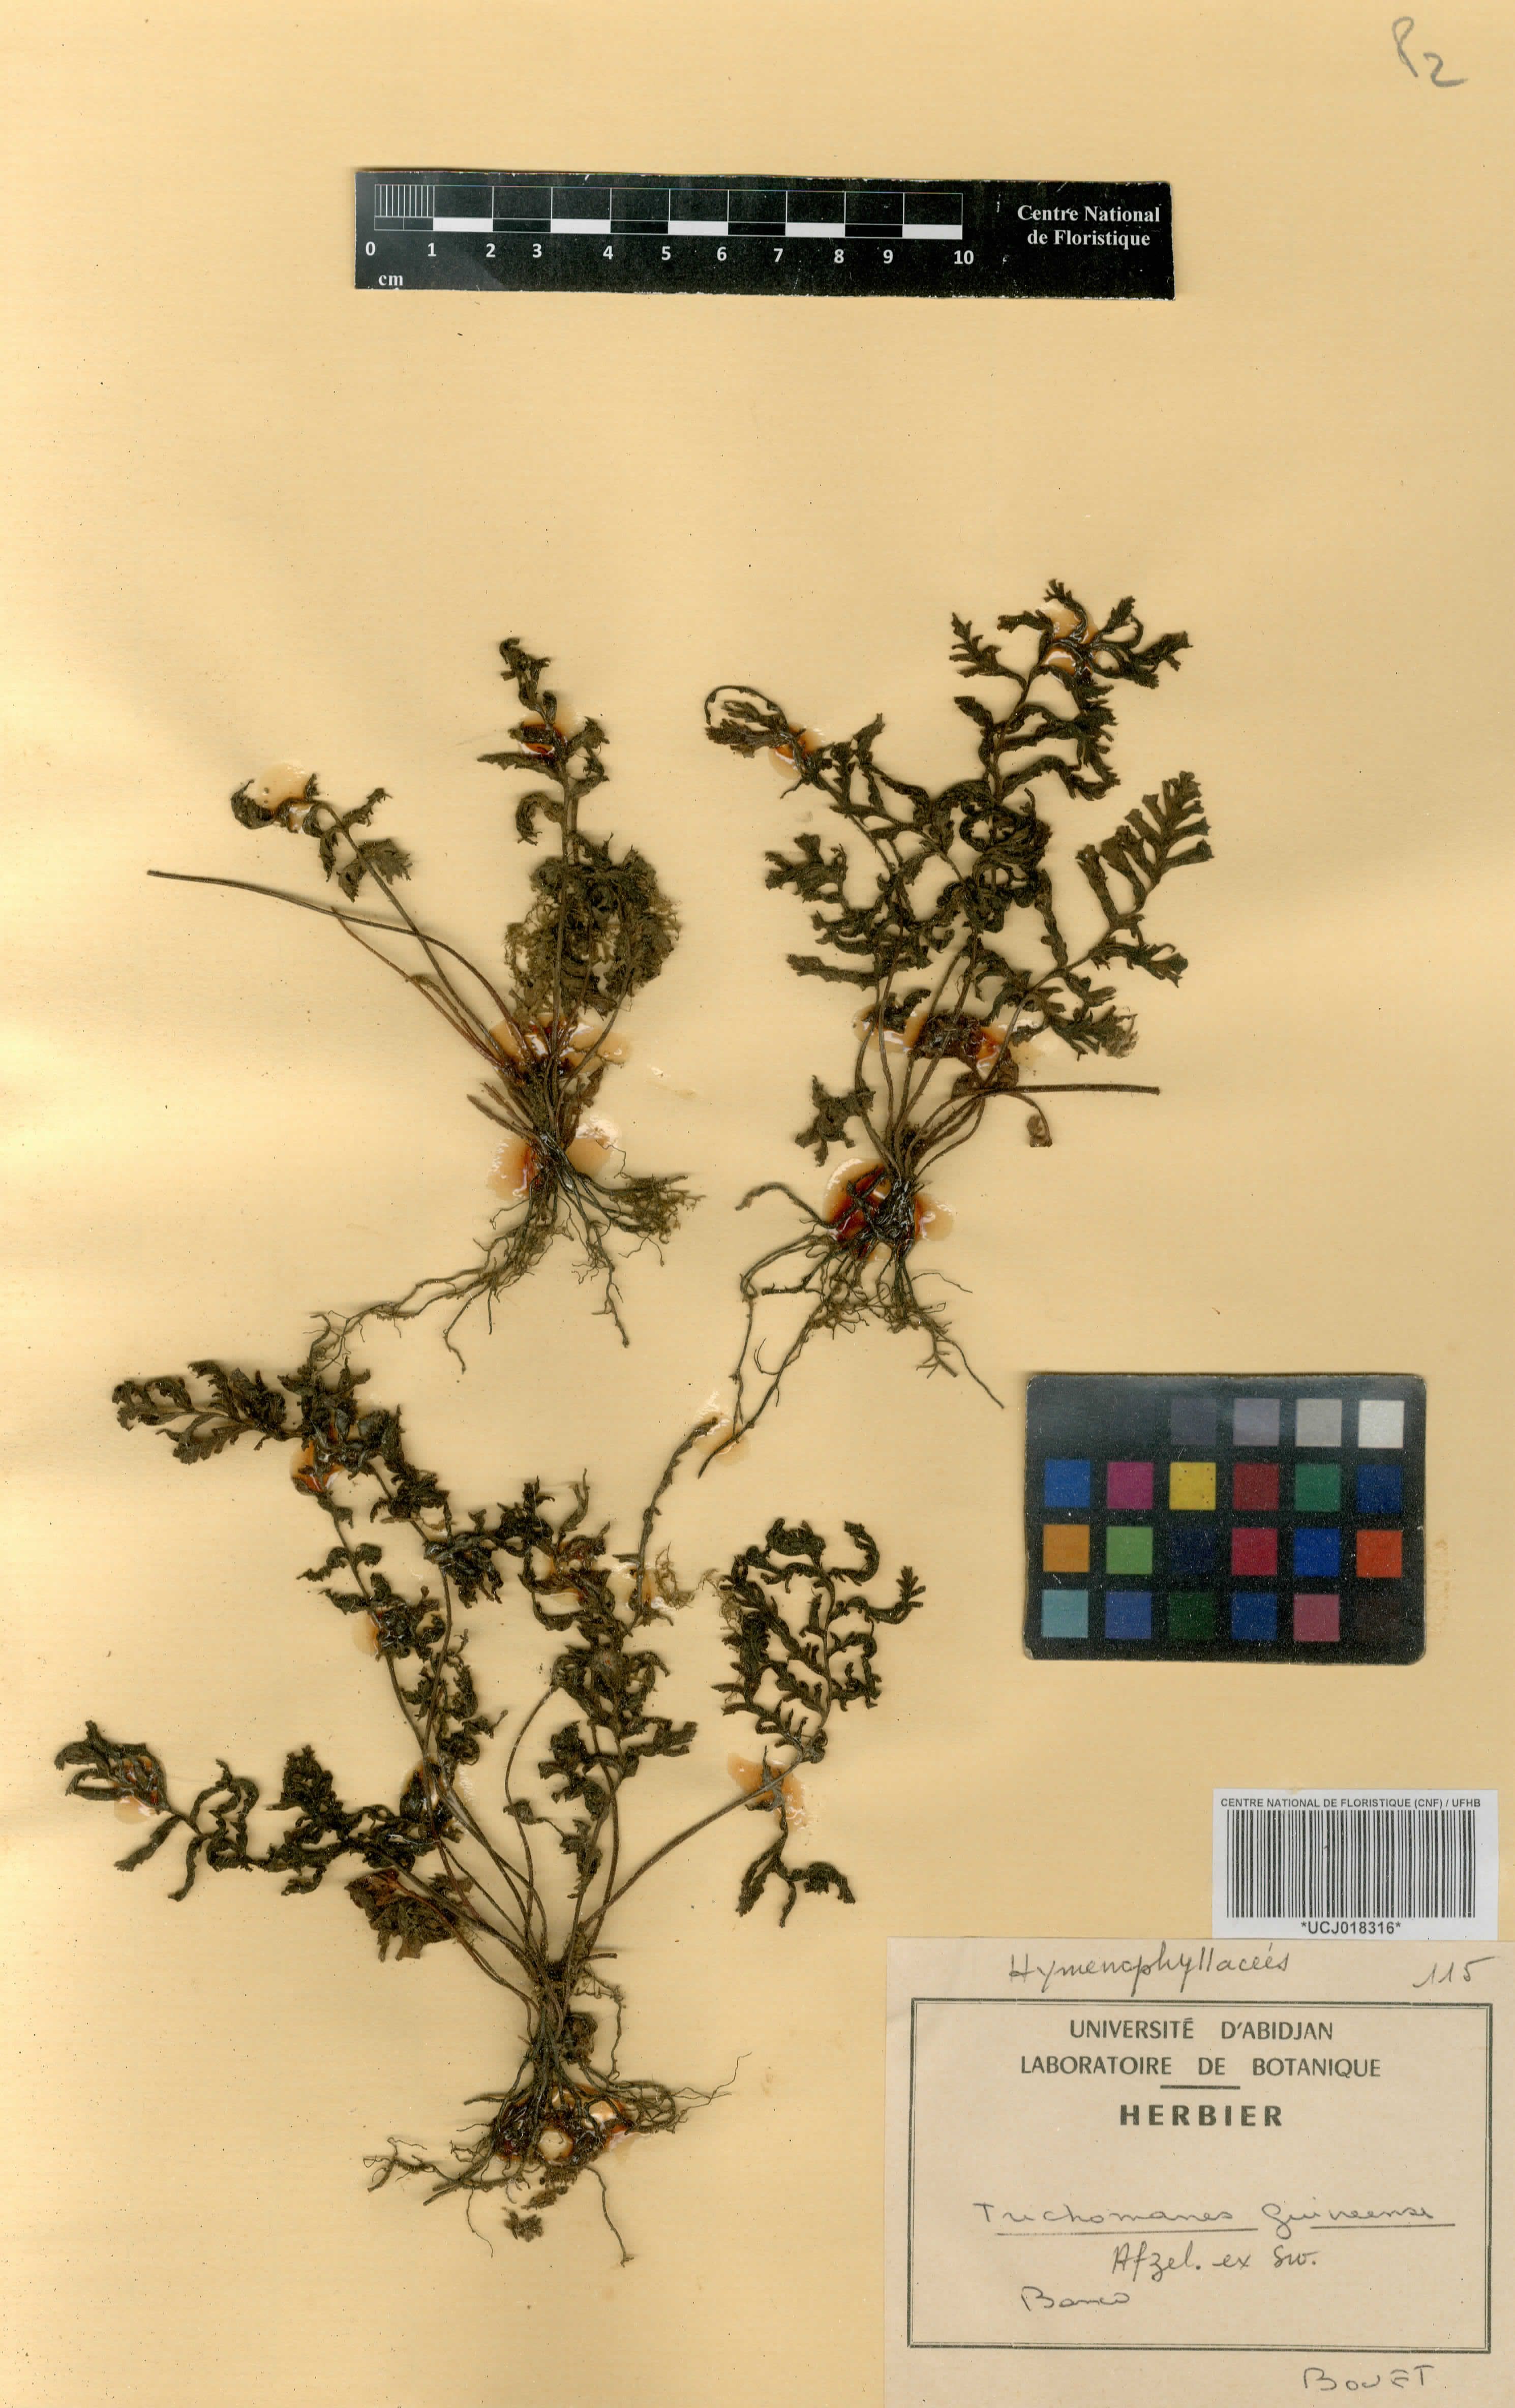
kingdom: Plantae
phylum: Tracheophyta
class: Polypodiopsida
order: Hymenophyllales
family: Hymenophyllaceae
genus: Abrodictyum
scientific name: Abrodictyum guineense
